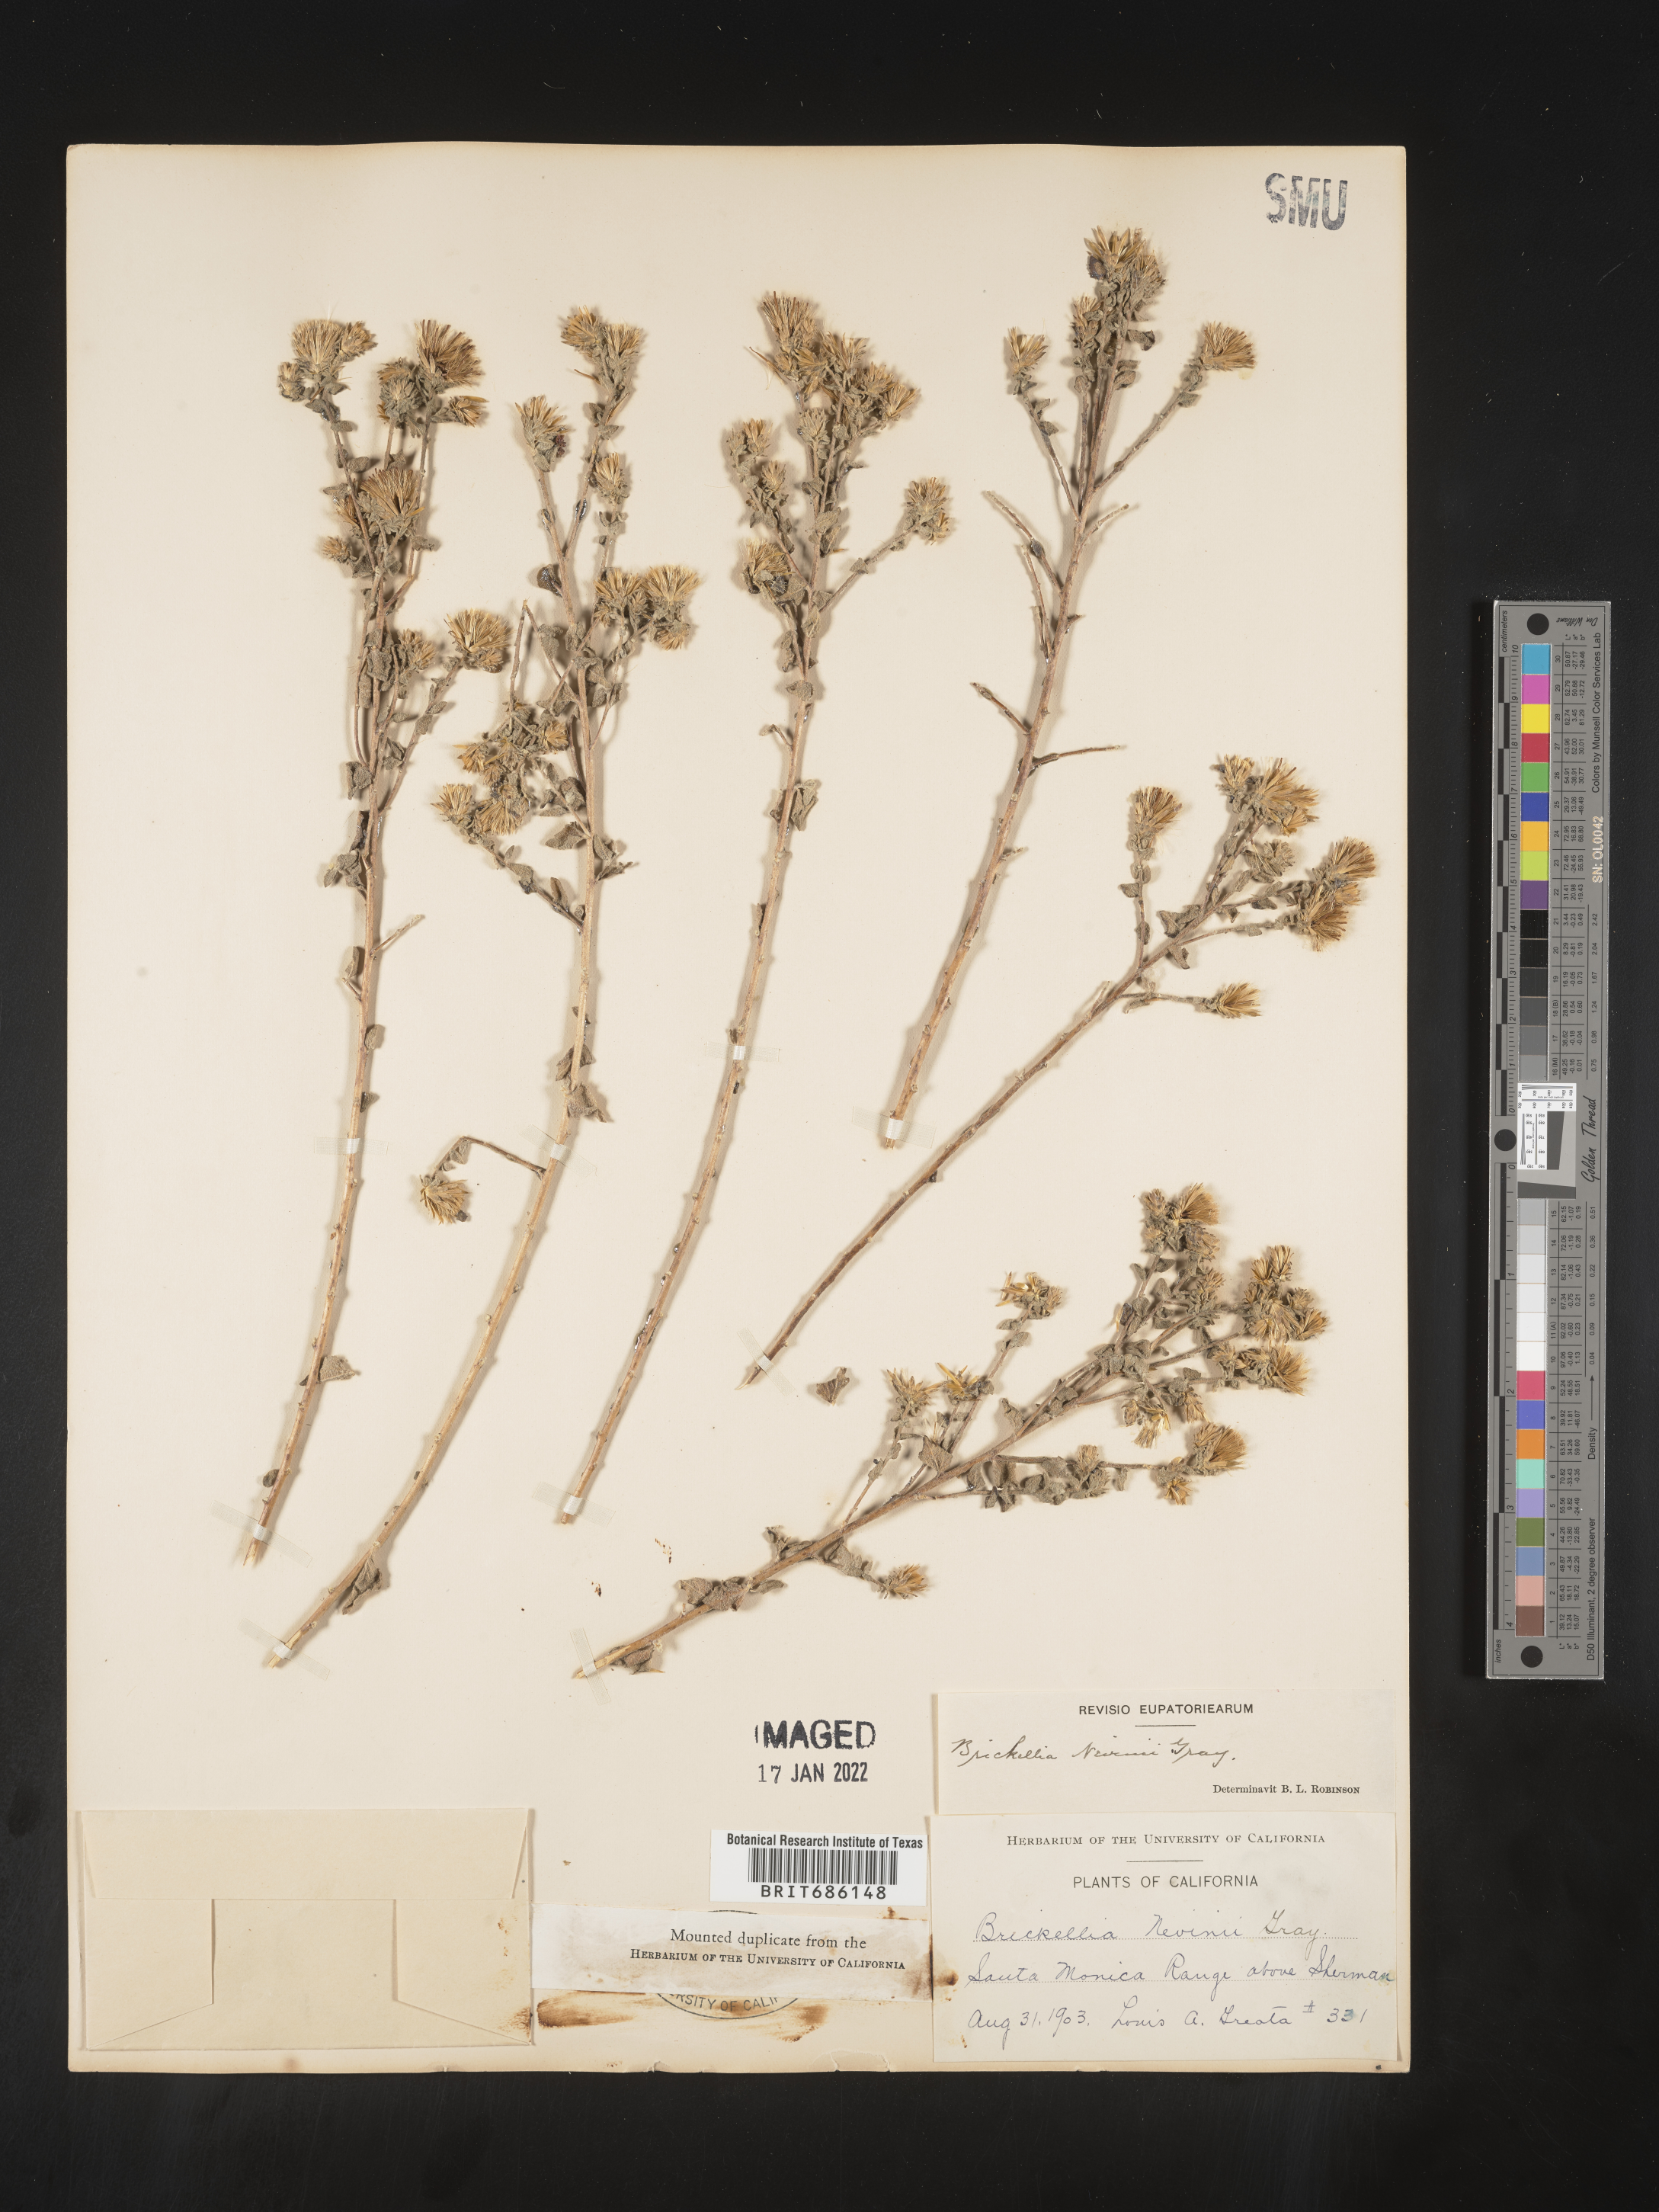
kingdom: Plantae
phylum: Tracheophyta
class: Magnoliopsida
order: Asterales
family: Asteraceae
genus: Brickellia
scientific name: Brickellia nevinii
